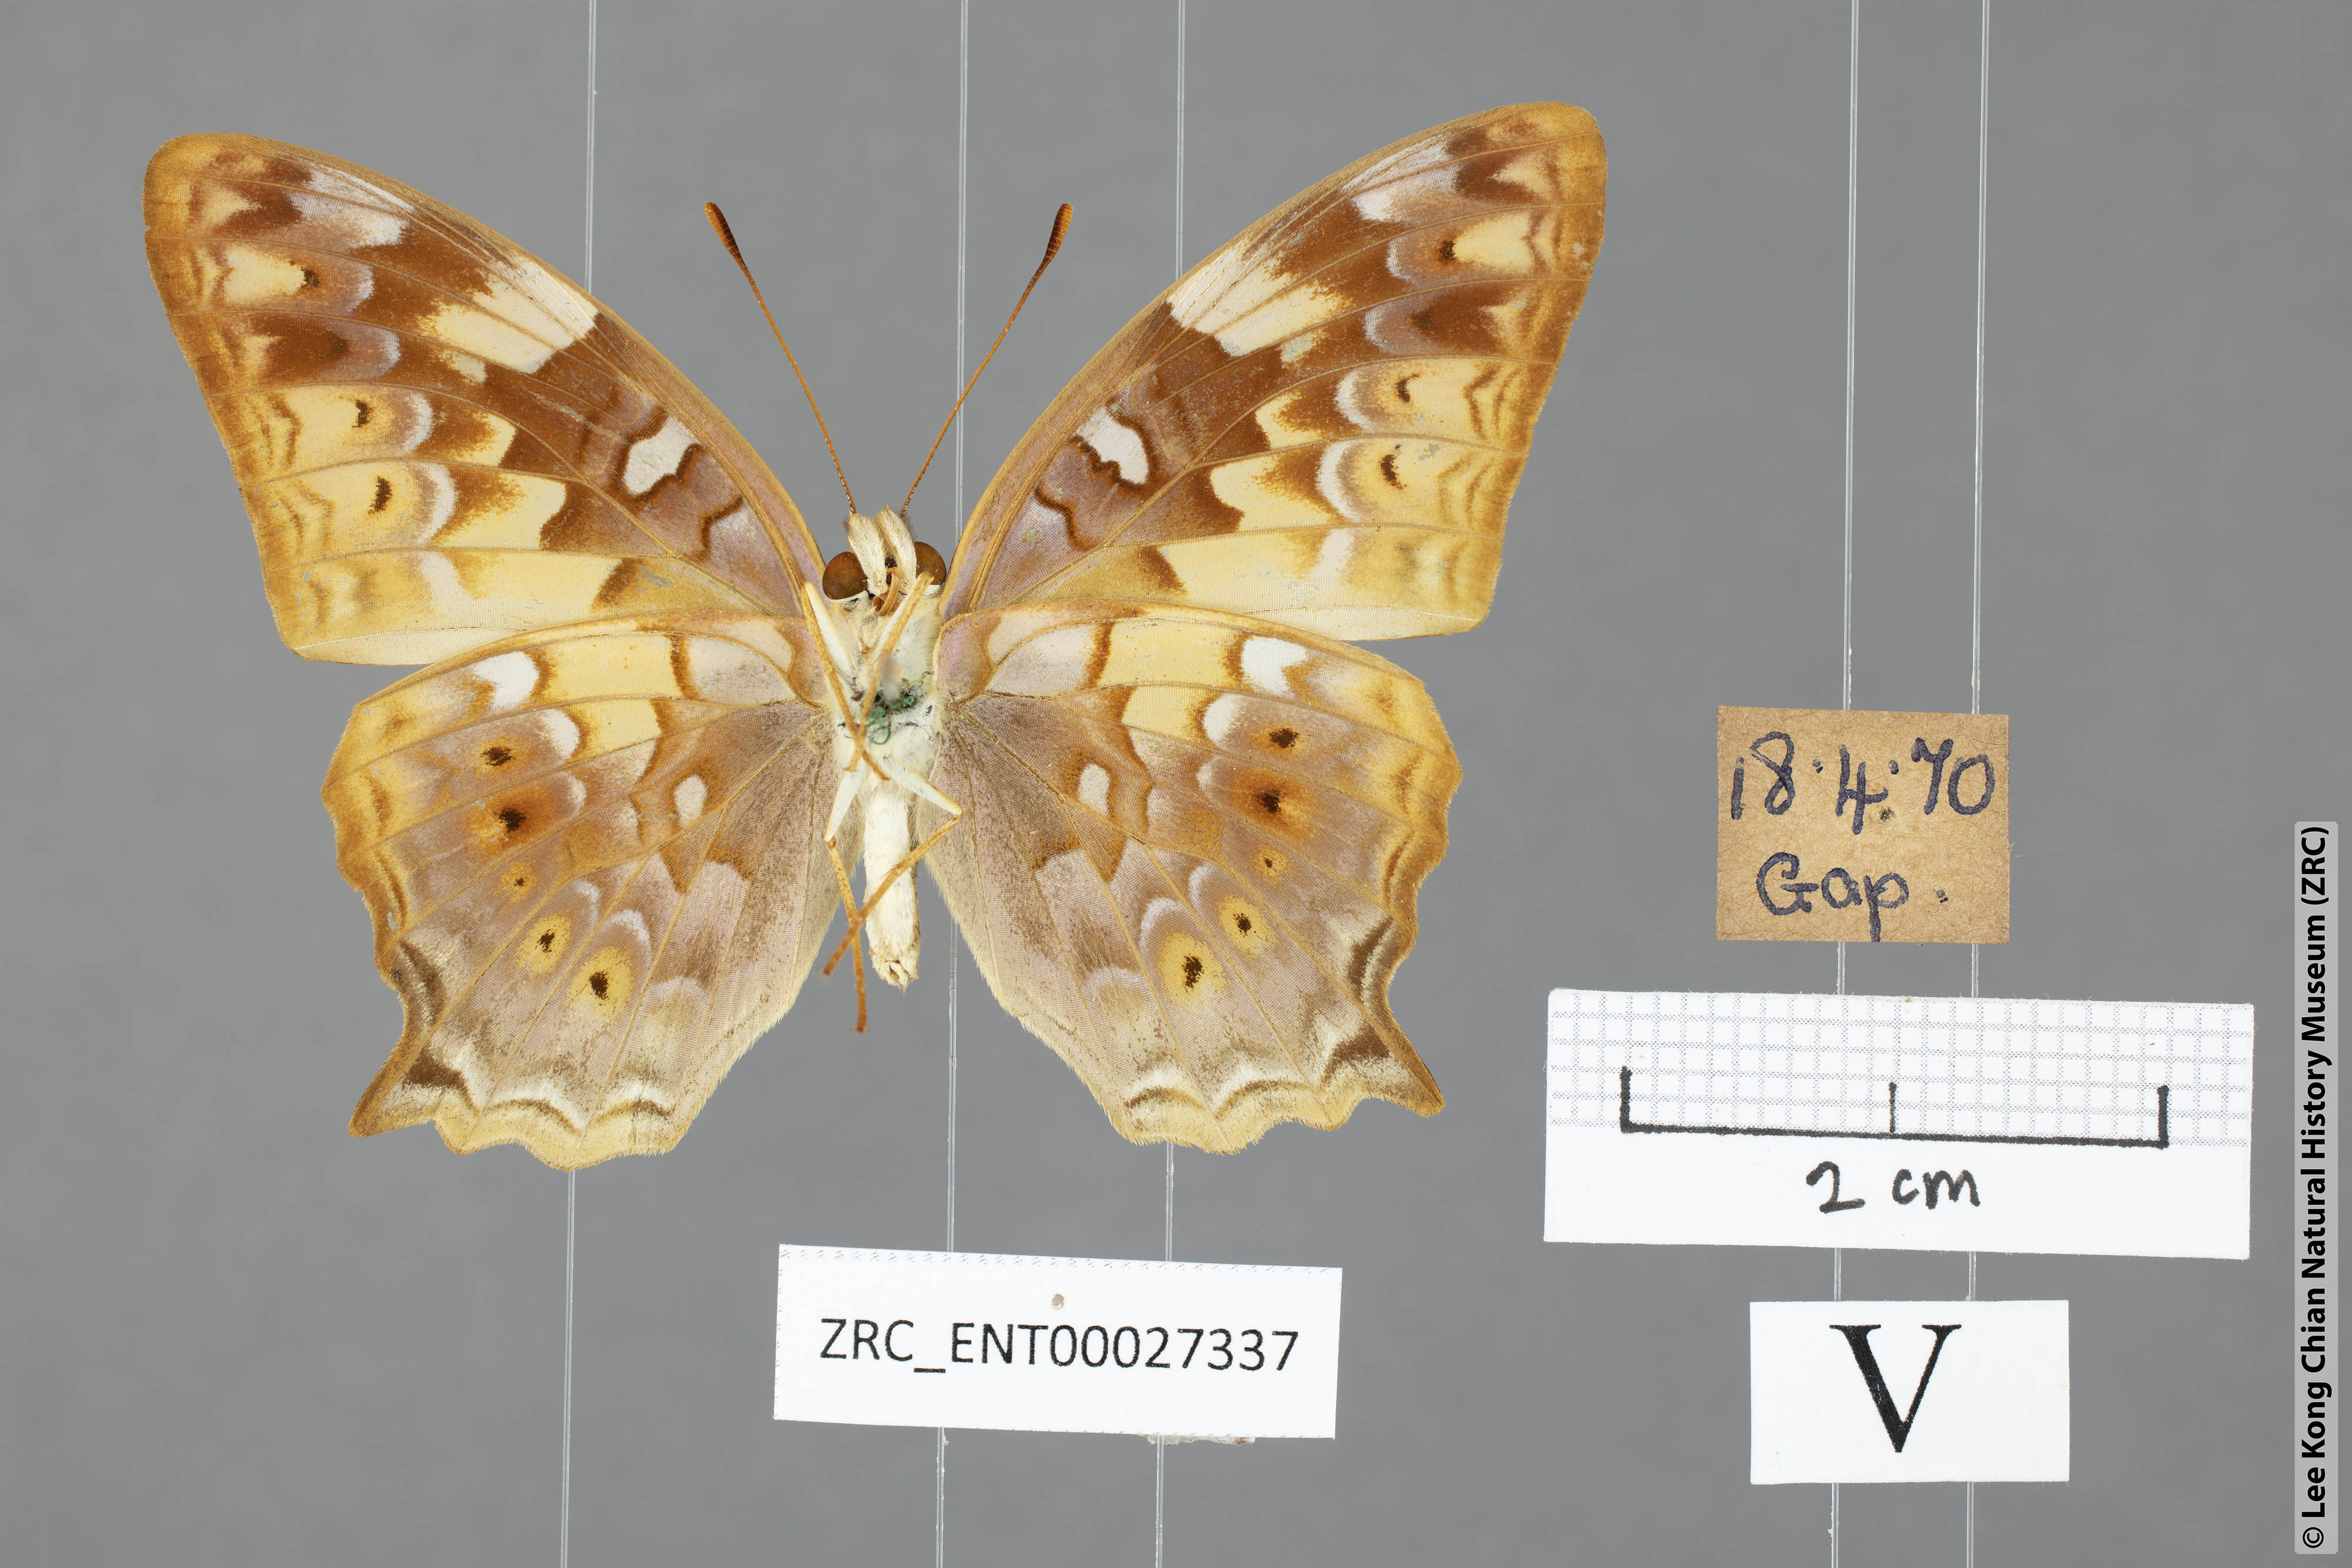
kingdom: Animalia
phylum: Arthropoda
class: Insecta
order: Lepidoptera
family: Nymphalidae
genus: Vagrans
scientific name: Vagrans egista
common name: Tailed rustic
